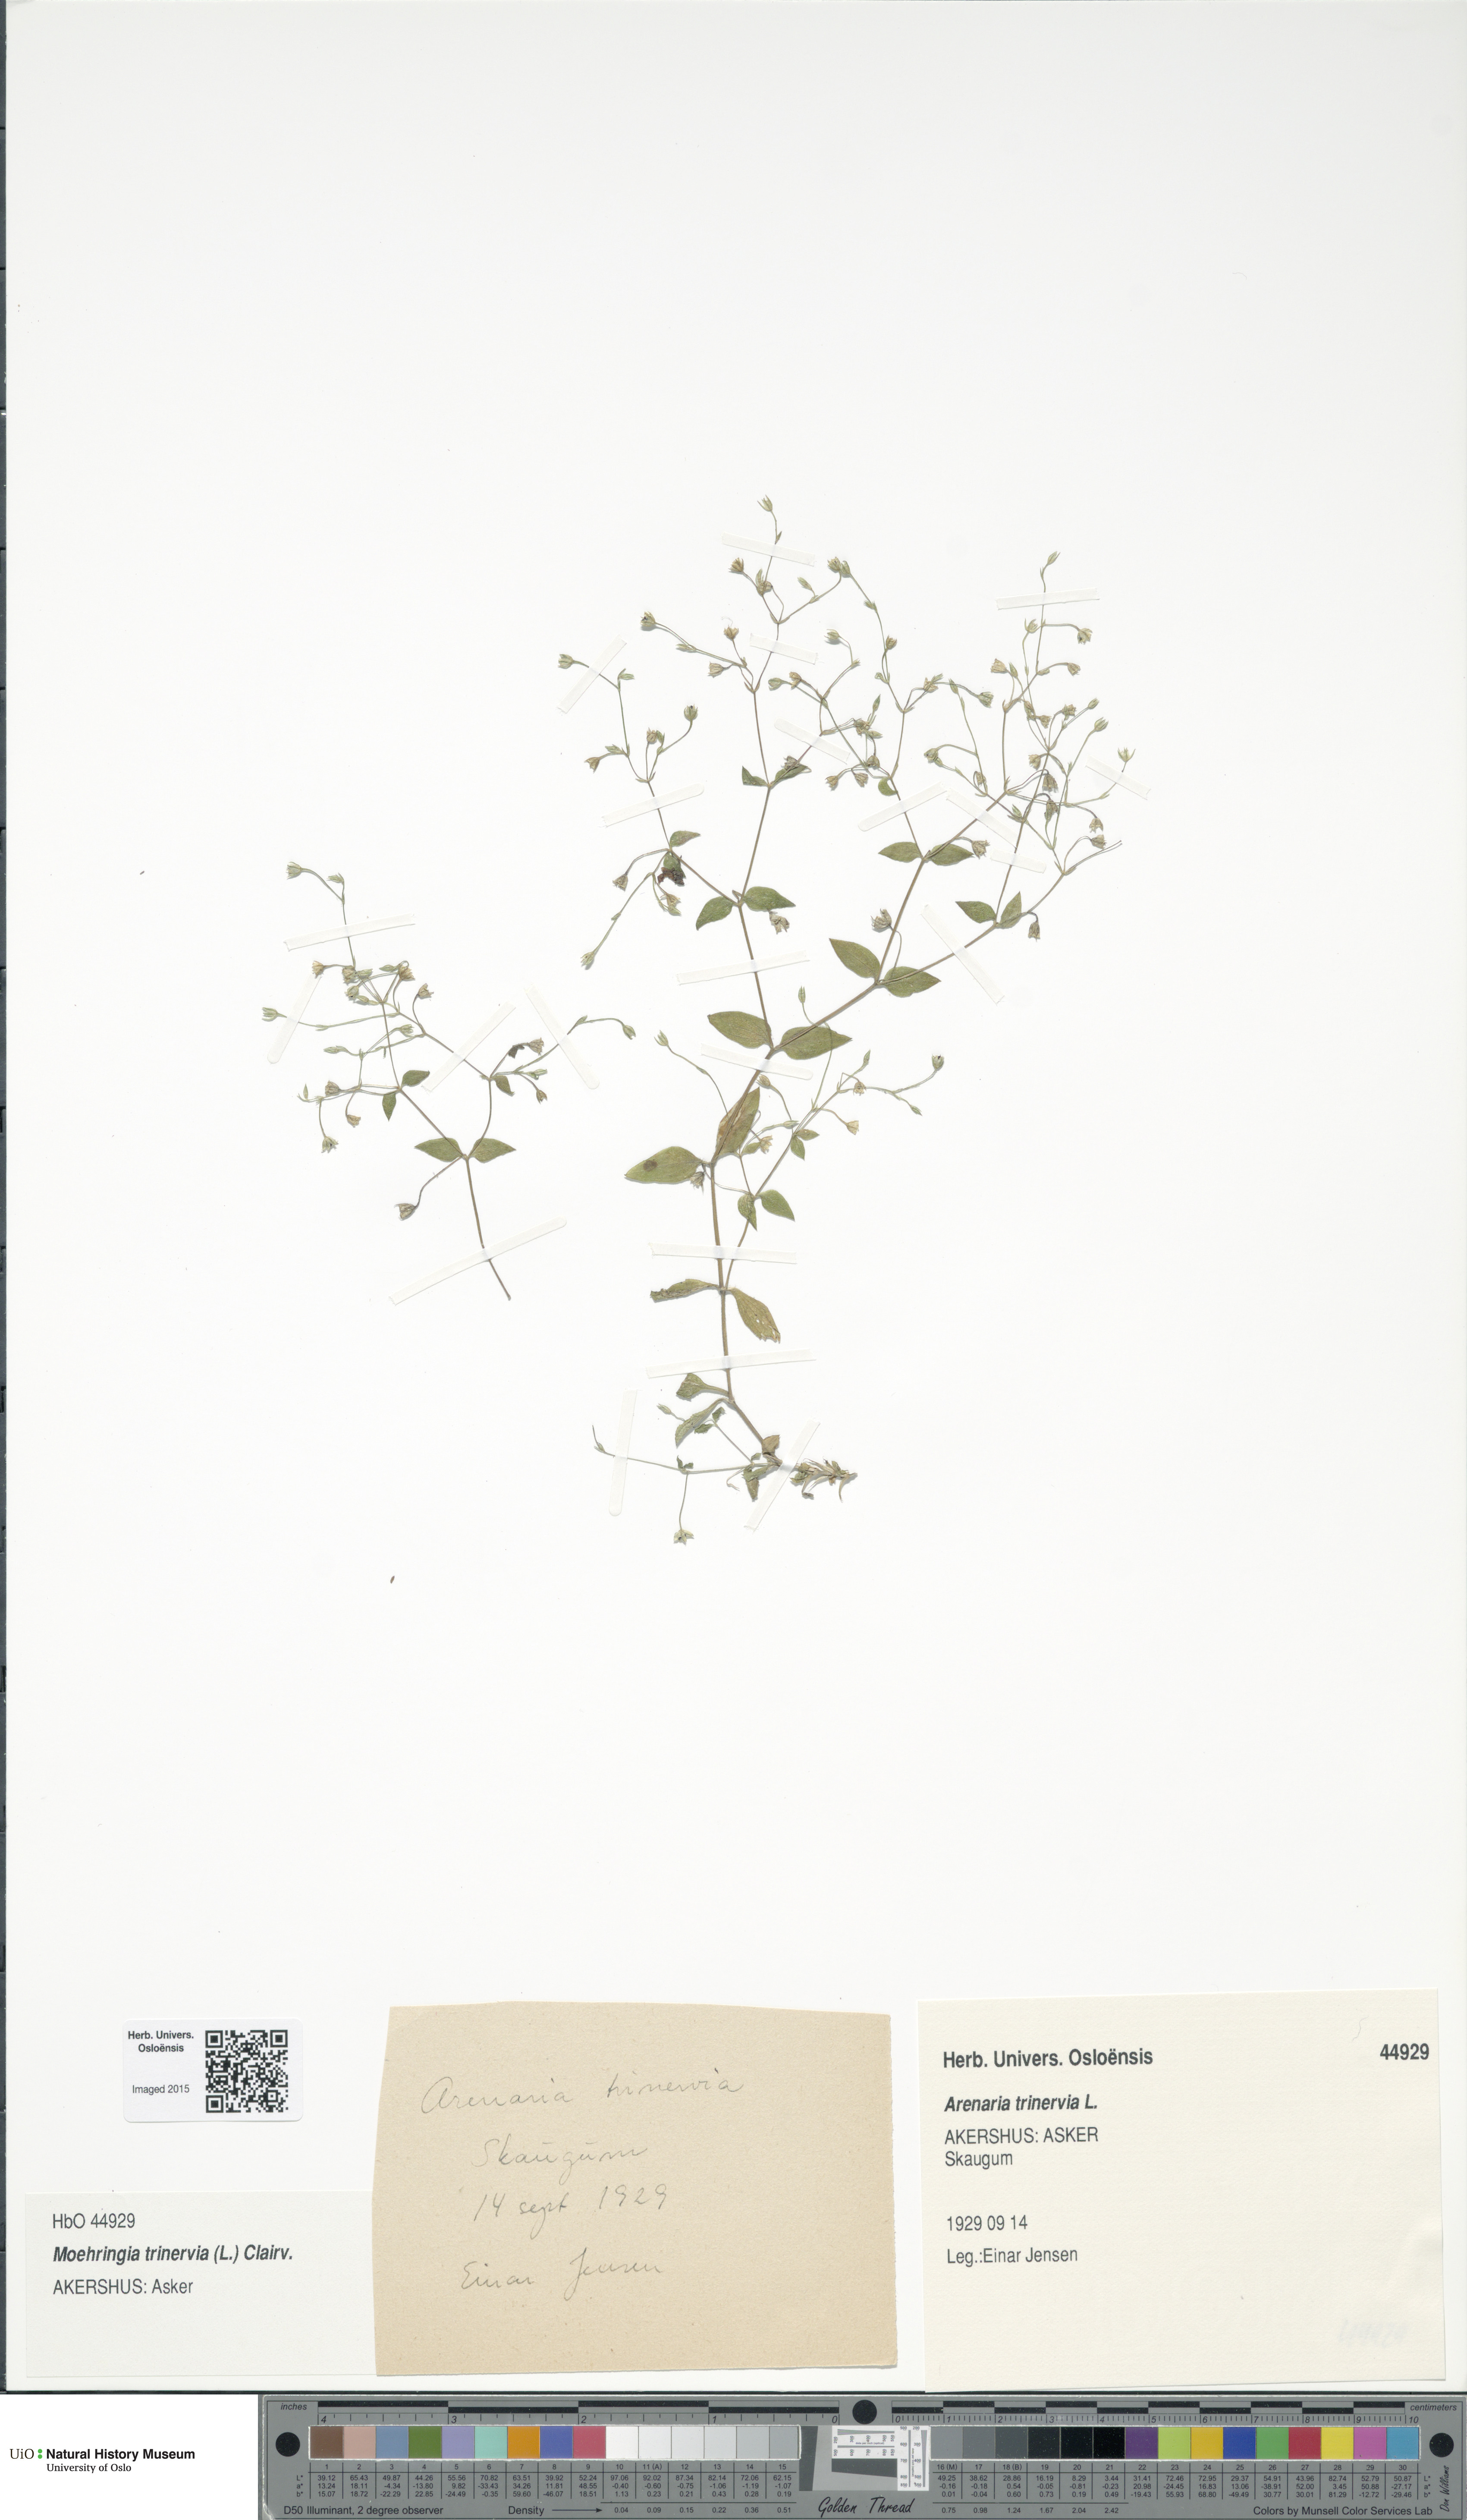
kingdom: Plantae
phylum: Tracheophyta
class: Magnoliopsida
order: Caryophyllales
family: Caryophyllaceae
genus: Moehringia
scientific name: Moehringia trinervia
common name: Three-nerved sandwort
